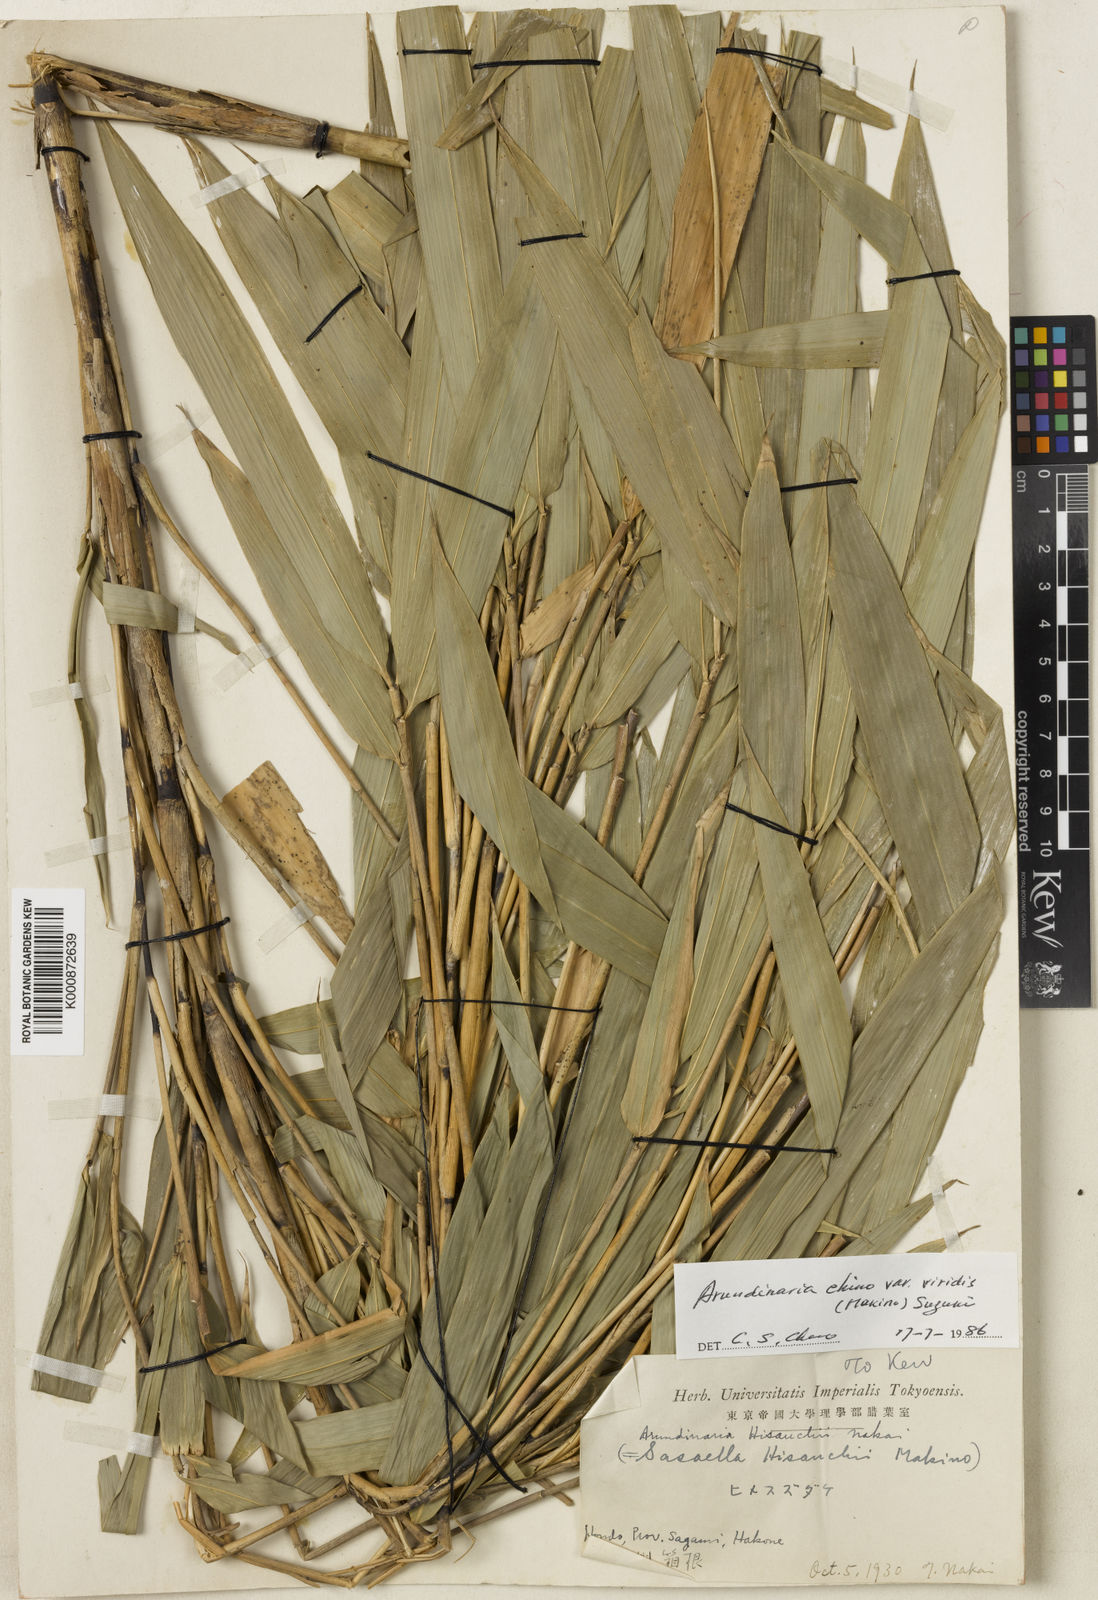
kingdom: Plantae
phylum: Tracheophyta
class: Liliopsida
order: Poales
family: Poaceae
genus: Pleioblastus
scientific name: Pleioblastus argenteostriatus
